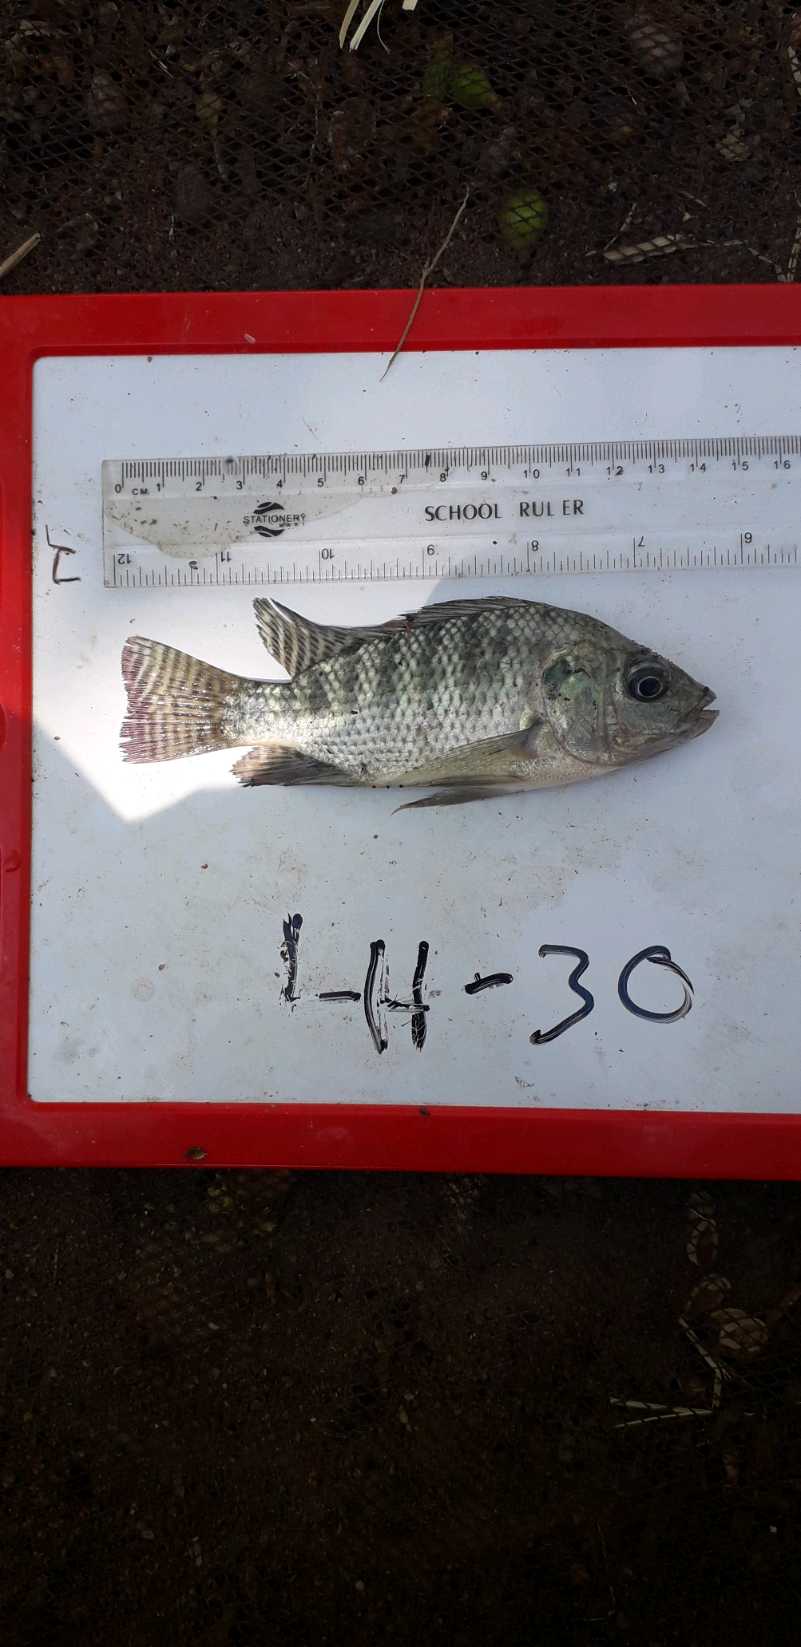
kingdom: Animalia
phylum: Chordata
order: Perciformes
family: Cichlidae
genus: Oreochromis
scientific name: Oreochromis niloticus
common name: Nile tilapia
